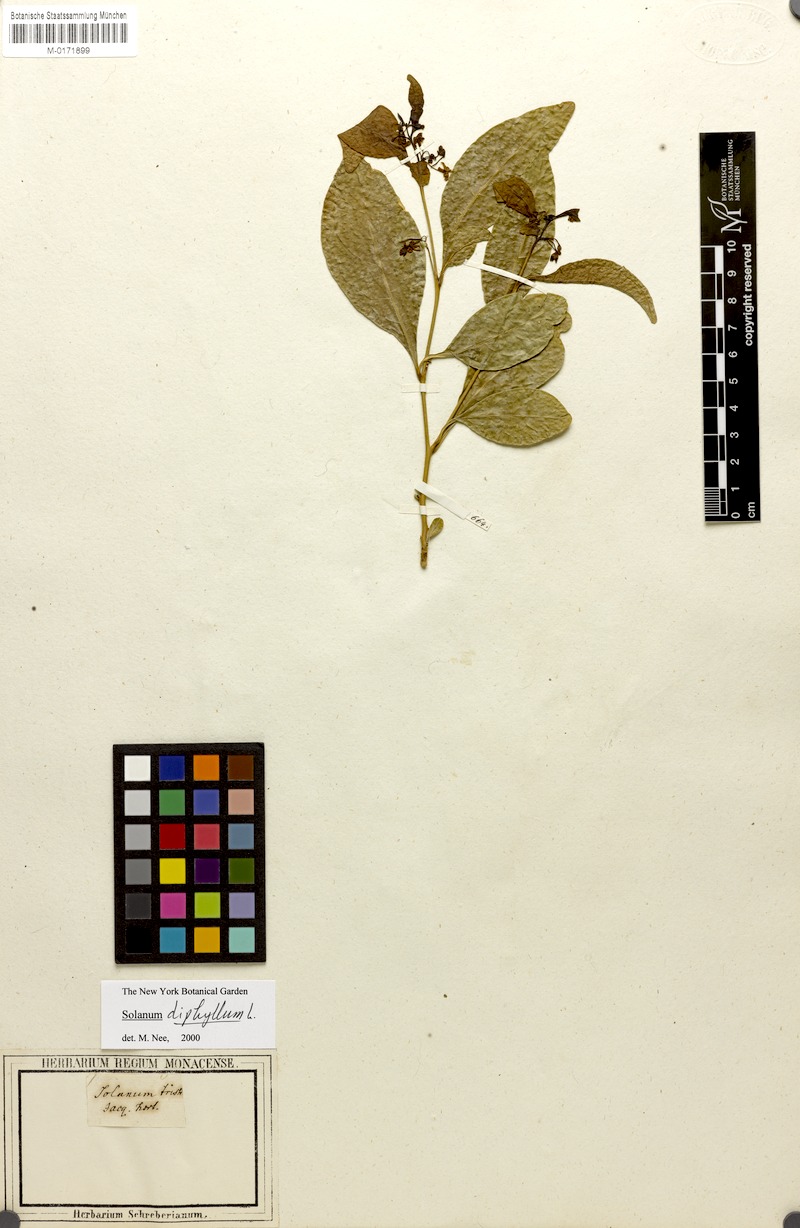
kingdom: Plantae
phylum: Tracheophyta
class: Magnoliopsida
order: Solanales
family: Solanaceae
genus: Solanum
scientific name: Solanum diphyllum
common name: Twoleaf nightshade
